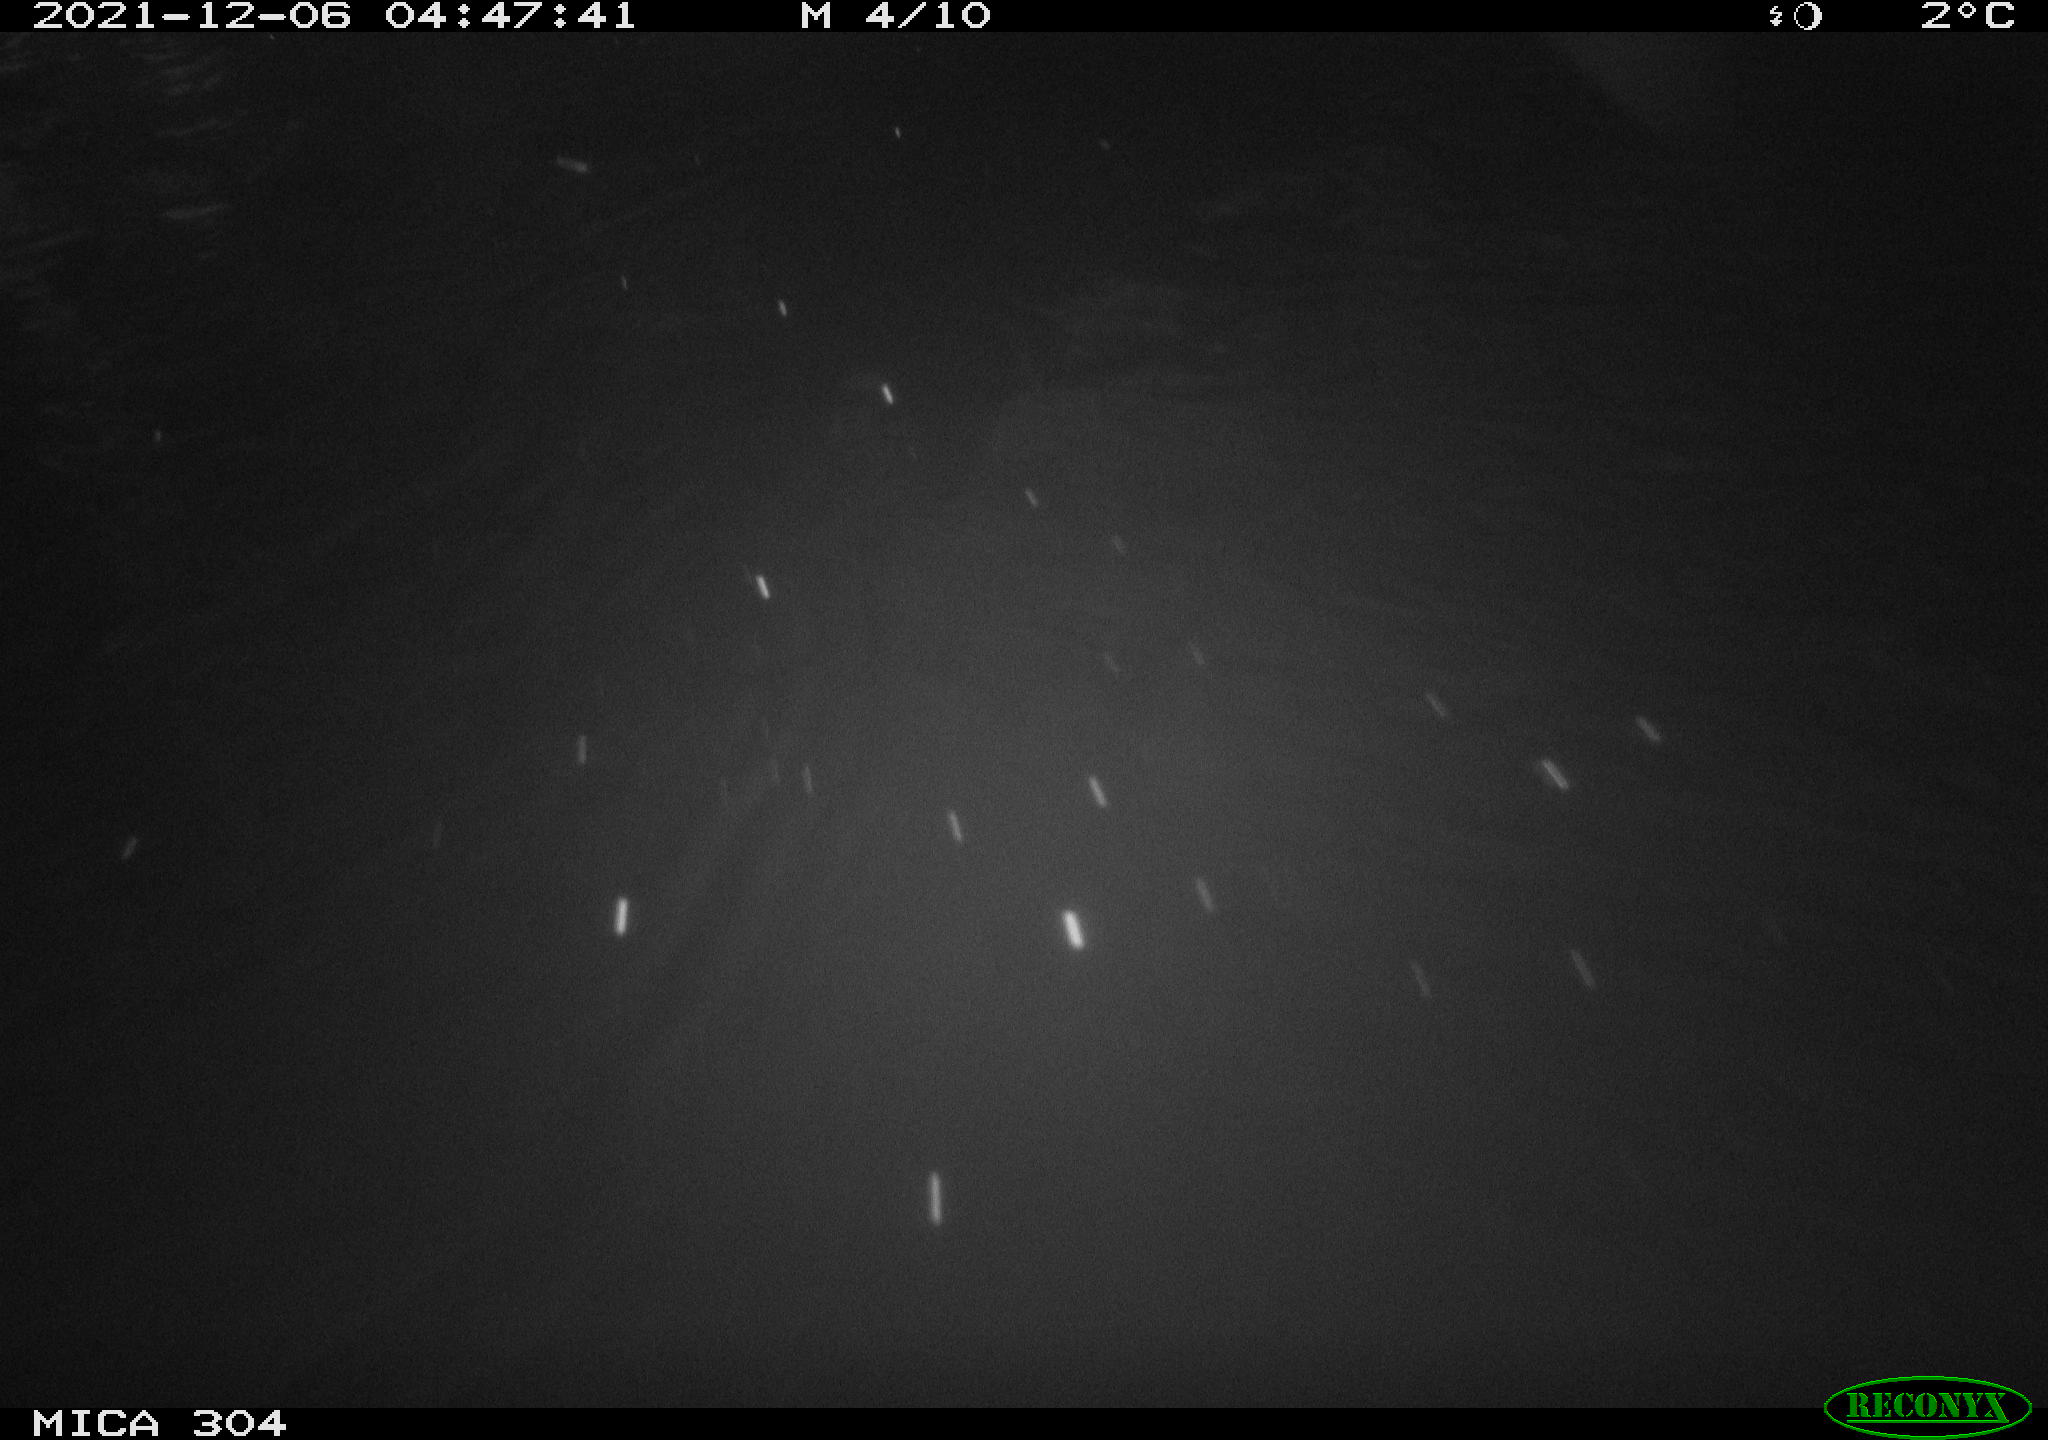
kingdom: Animalia
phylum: Chordata
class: Mammalia
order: Rodentia
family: Muridae
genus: Rattus
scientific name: Rattus norvegicus
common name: Brown rat
